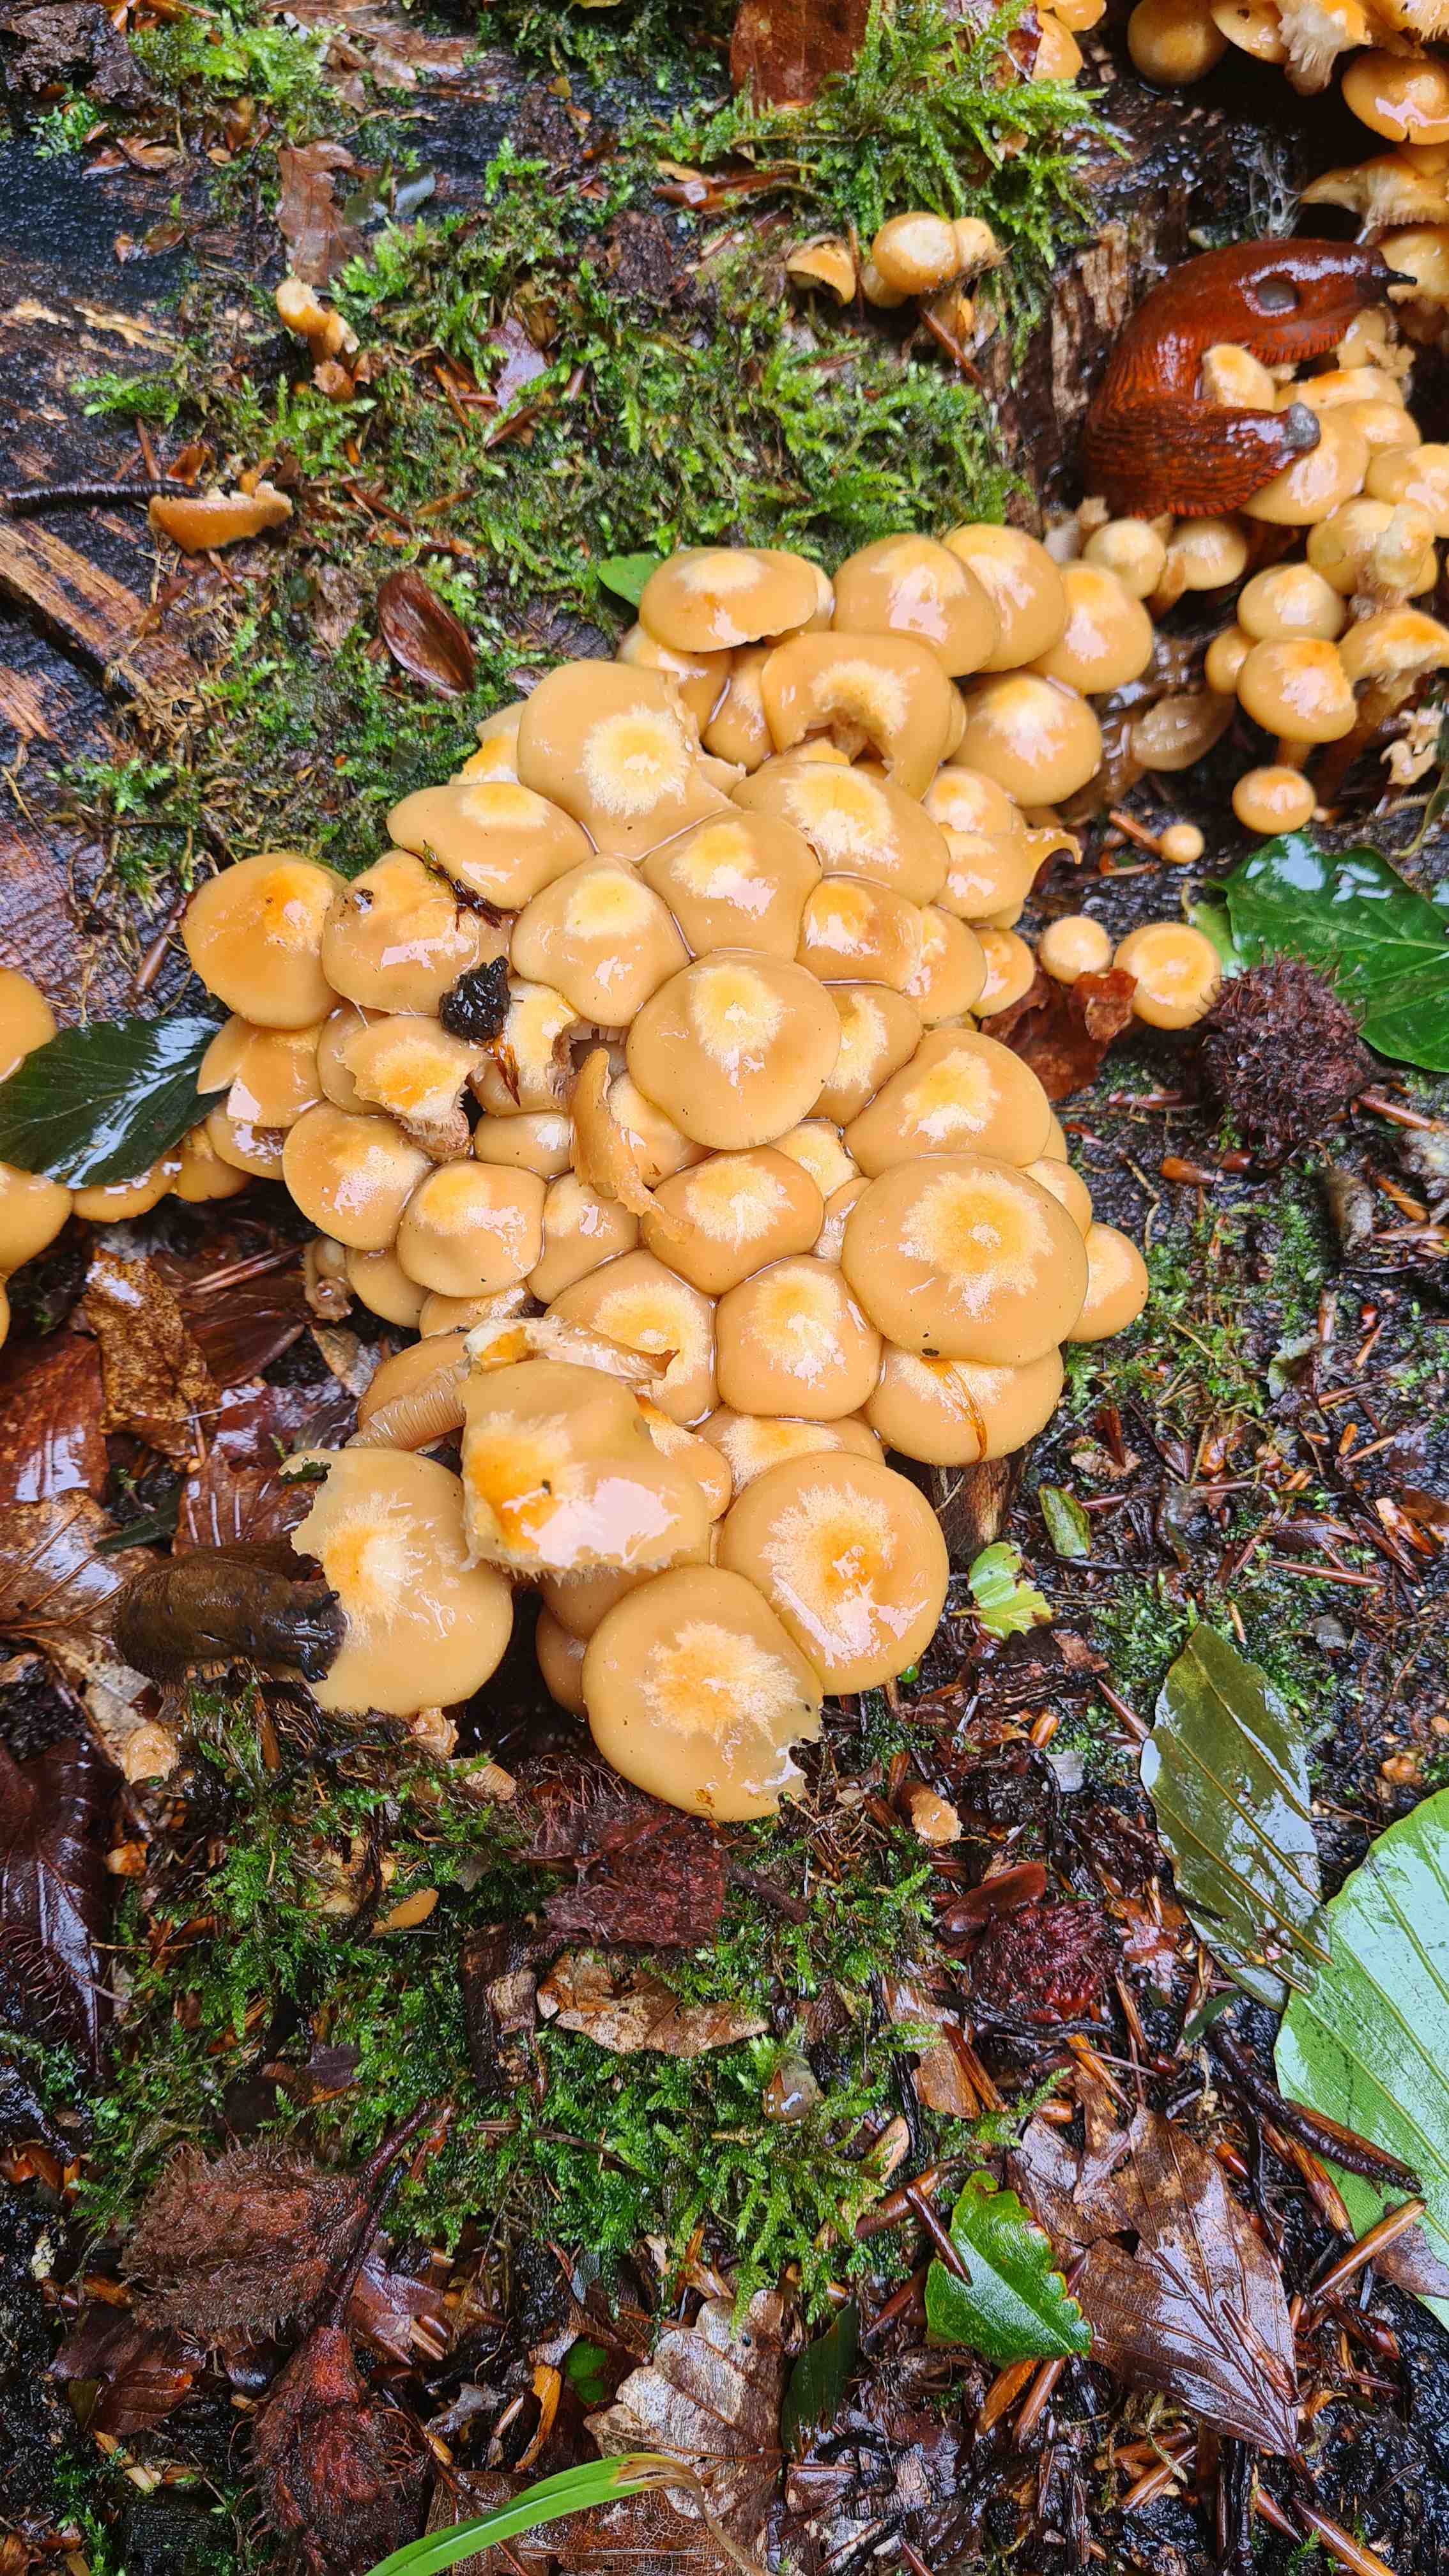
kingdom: Fungi
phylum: Basidiomycota
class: Agaricomycetes
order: Agaricales
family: Strophariaceae
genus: Kuehneromyces
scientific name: Kuehneromyces mutabilis
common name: foranderlig skælhat
